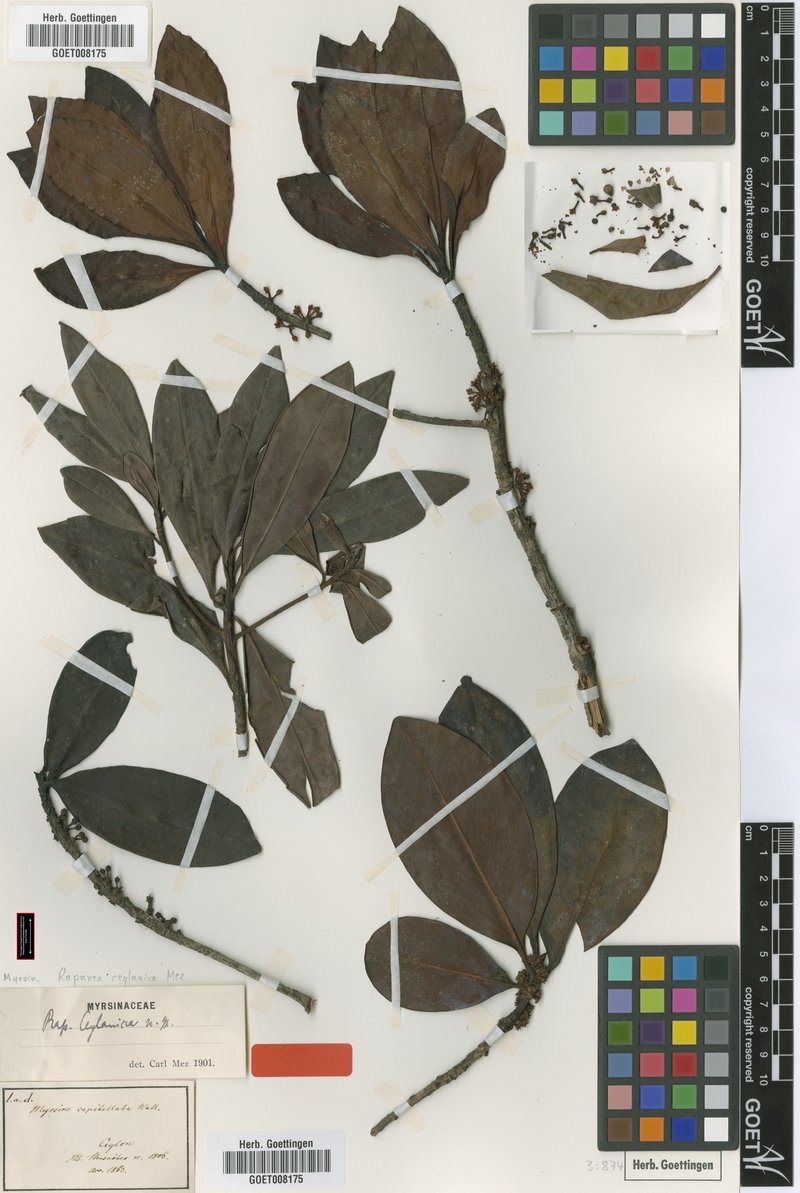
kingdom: Plantae
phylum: Tracheophyta
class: Magnoliopsida
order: Ericales
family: Primulaceae
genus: Myrsine
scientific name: Myrsine ceylanica
